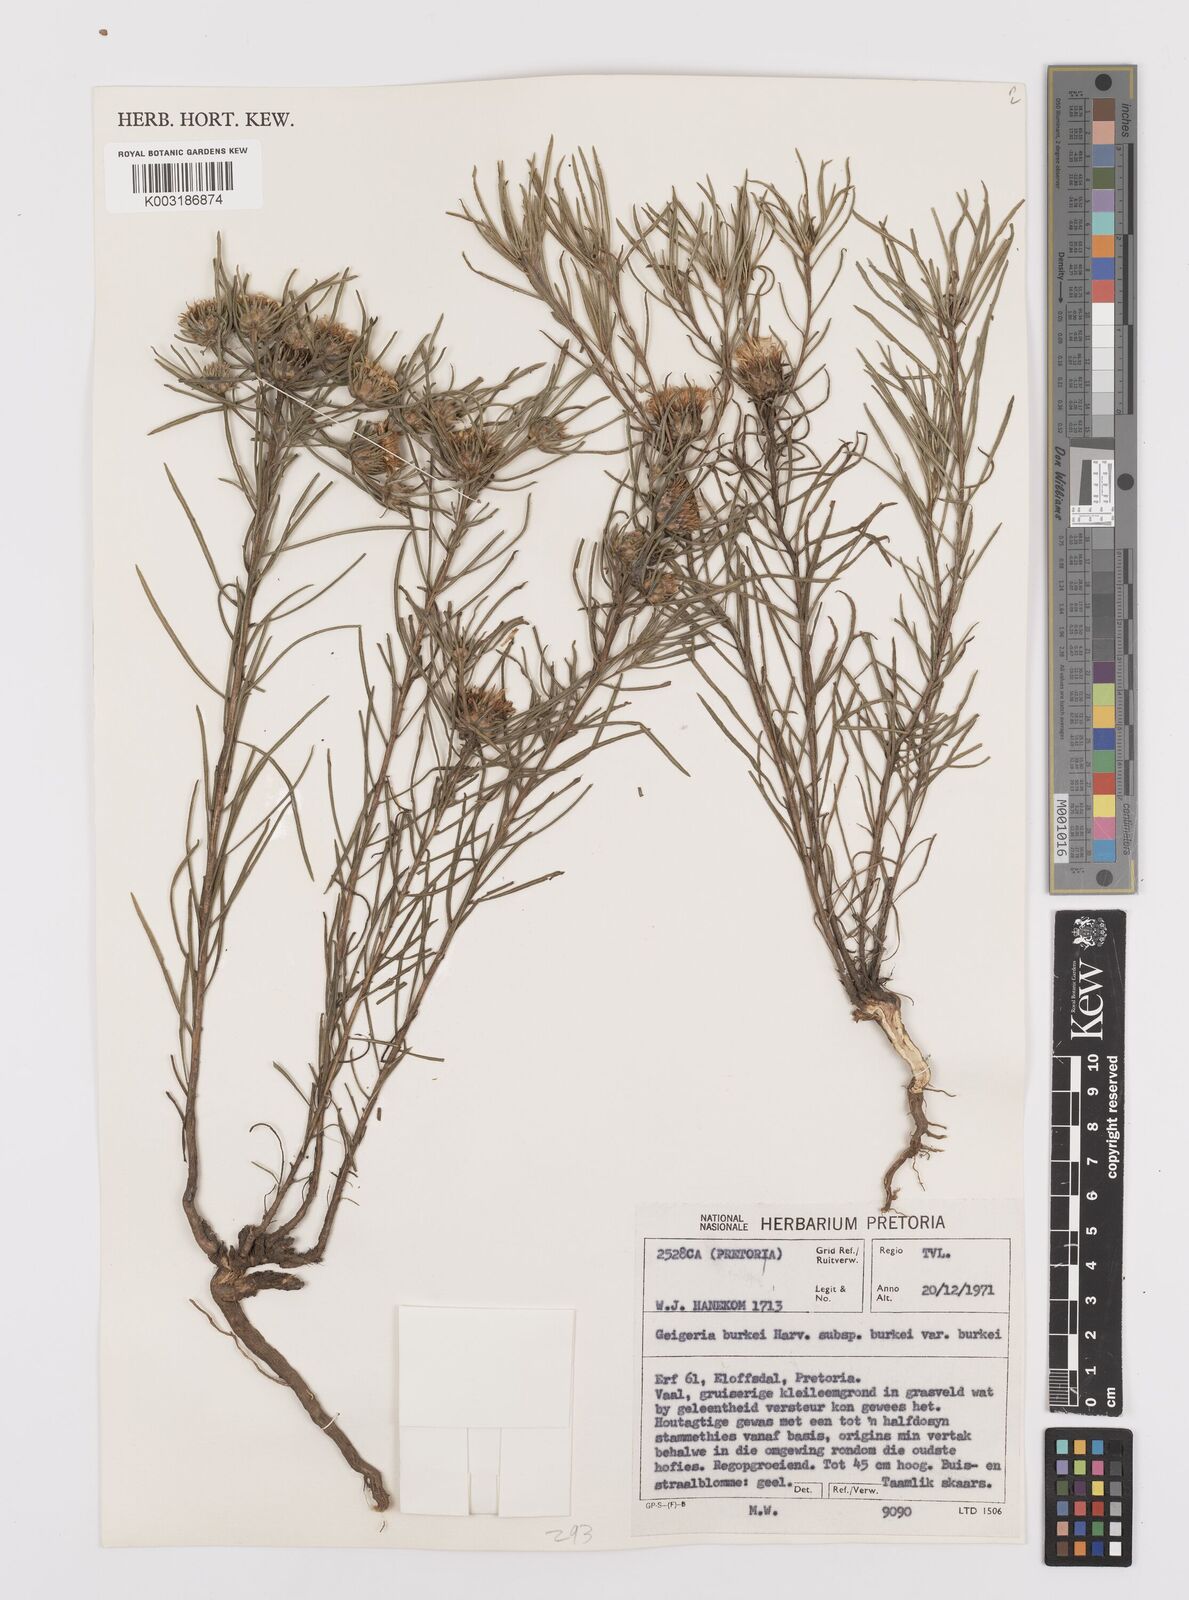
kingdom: Plantae
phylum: Tracheophyta
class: Magnoliopsida
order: Asterales
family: Asteraceae
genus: Geigeria
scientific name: Geigeria burkei
